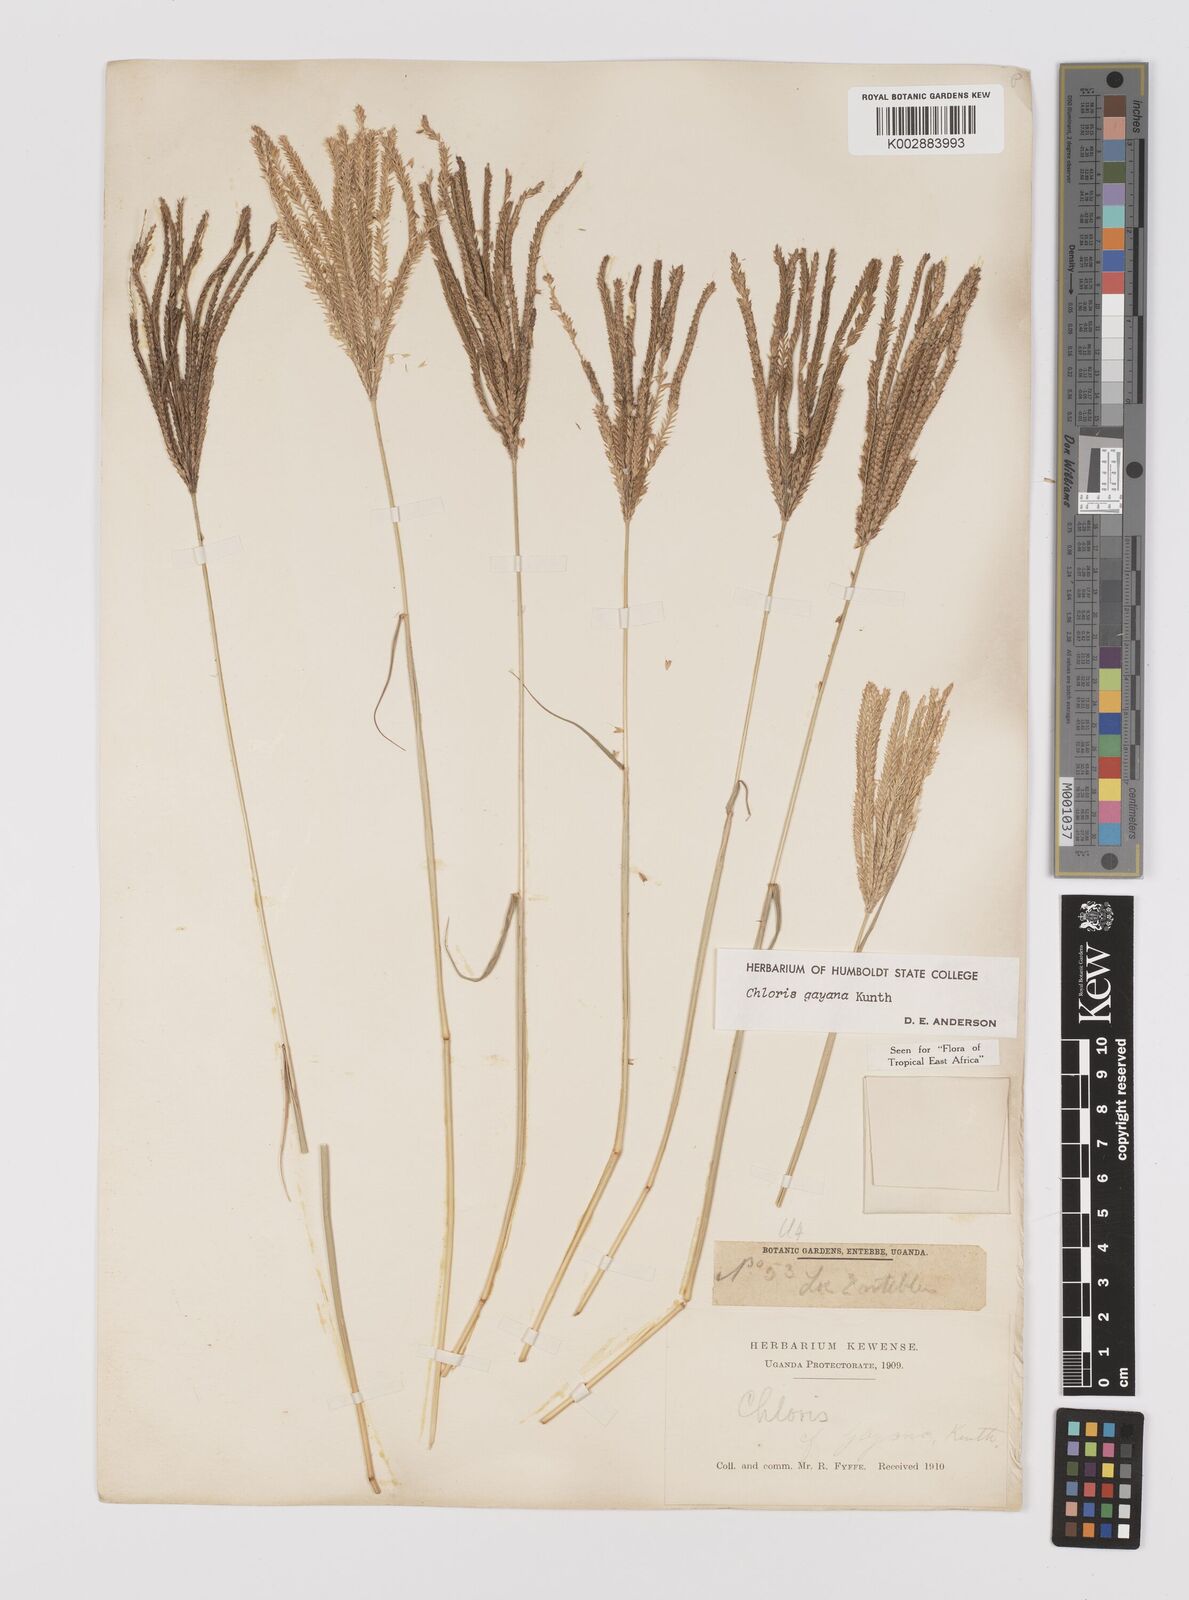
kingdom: Plantae
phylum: Tracheophyta
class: Liliopsida
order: Poales
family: Poaceae
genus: Chloris
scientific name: Chloris gayana
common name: Rhodes grass
